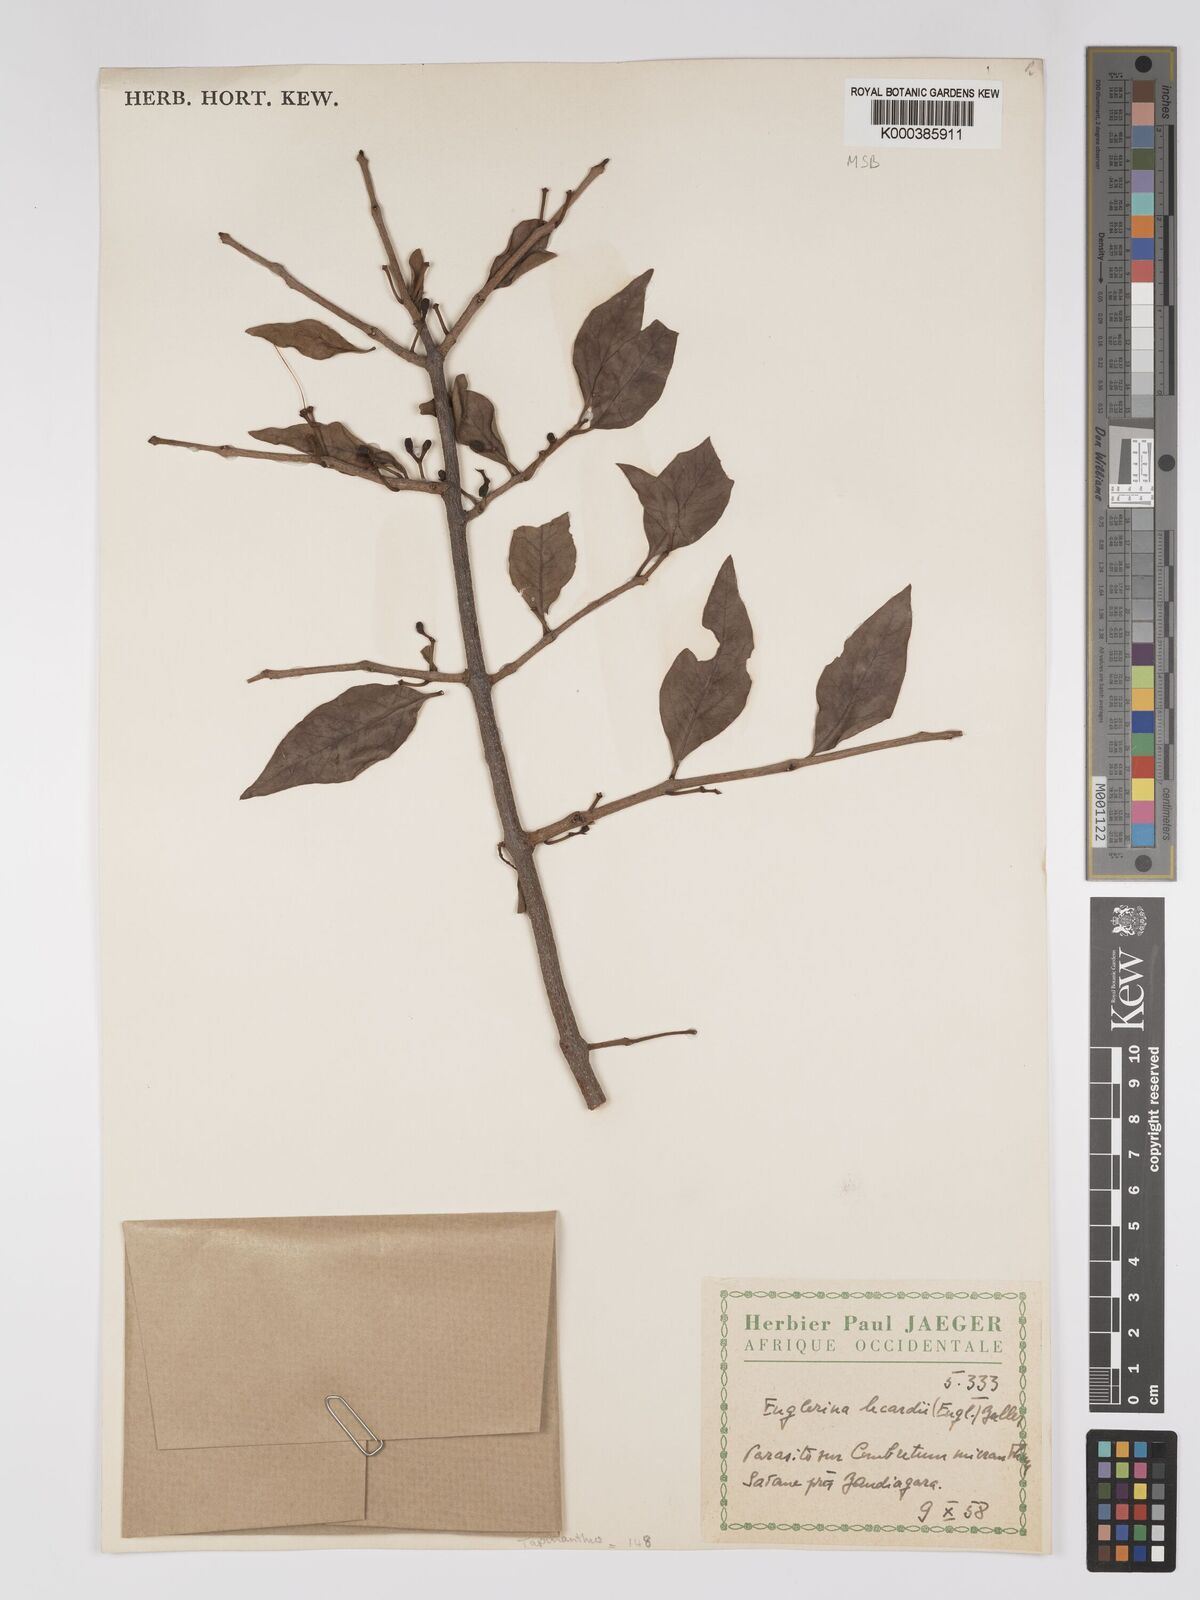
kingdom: Plantae
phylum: Tracheophyta
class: Magnoliopsida
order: Santalales
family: Loranthaceae
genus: Englerina
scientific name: Englerina lecardii
